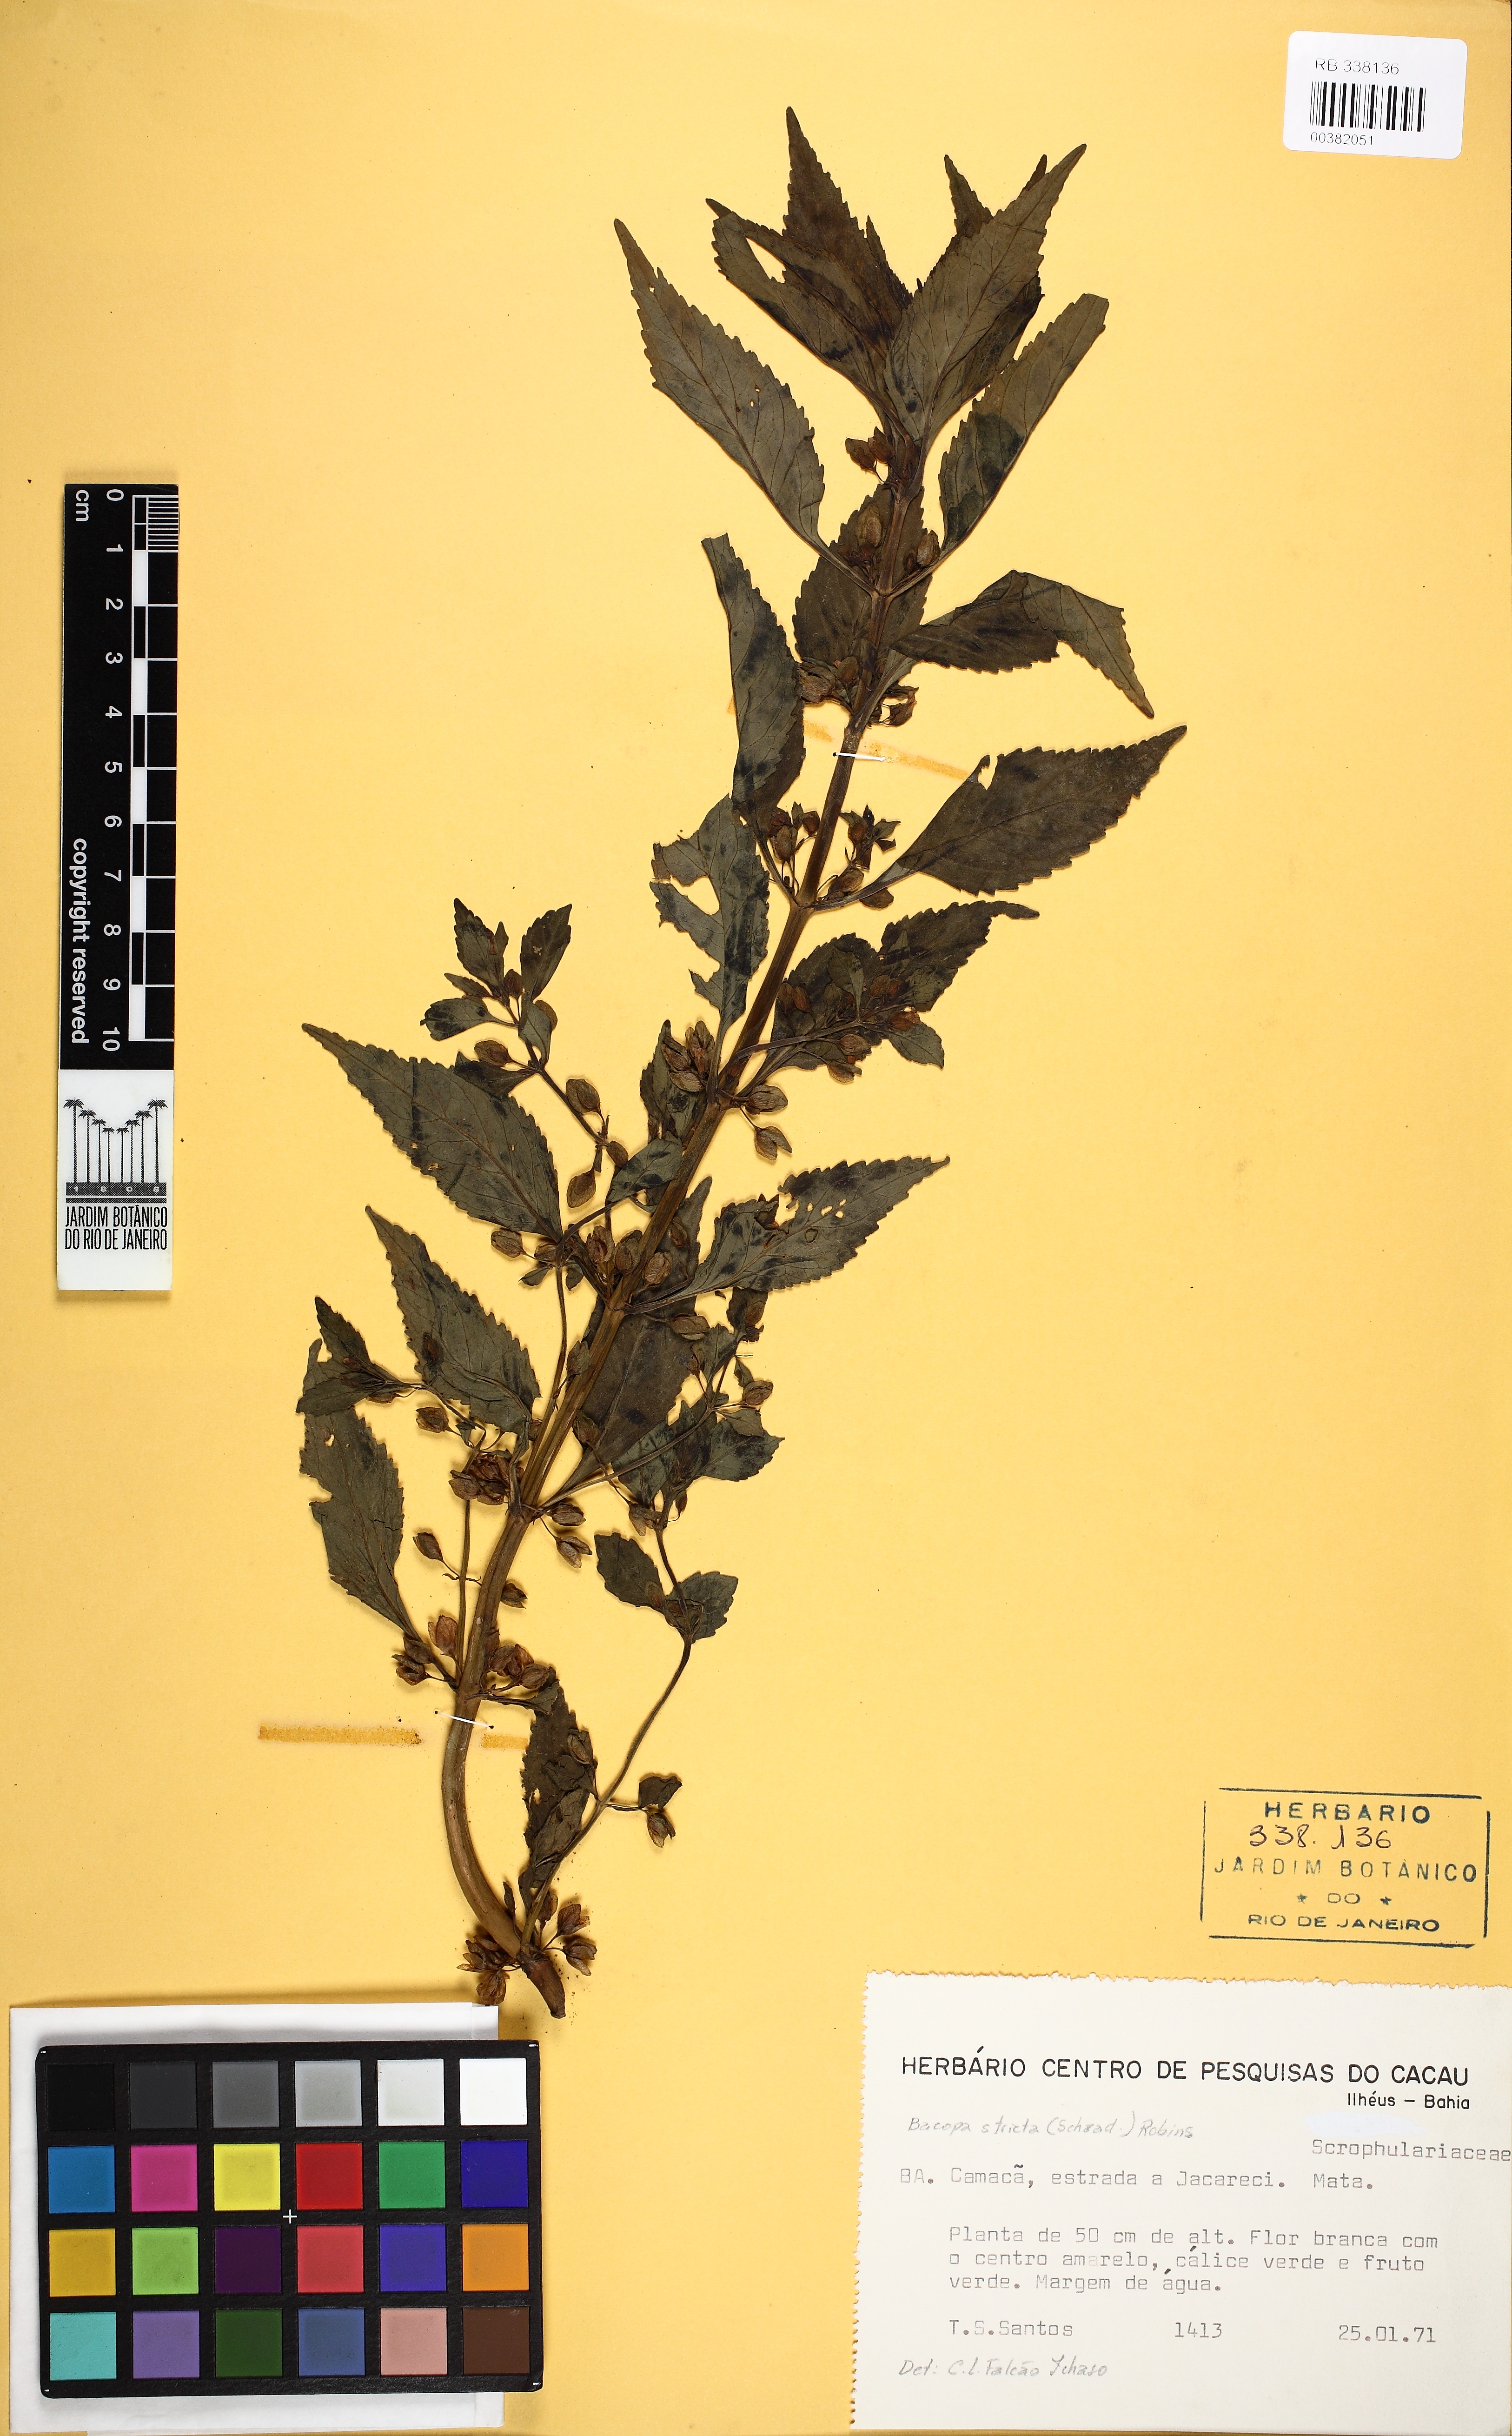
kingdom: Plantae
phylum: Tracheophyta
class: Magnoliopsida
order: Lamiales
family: Plantaginaceae
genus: Bacopa
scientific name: Bacopa stricta
